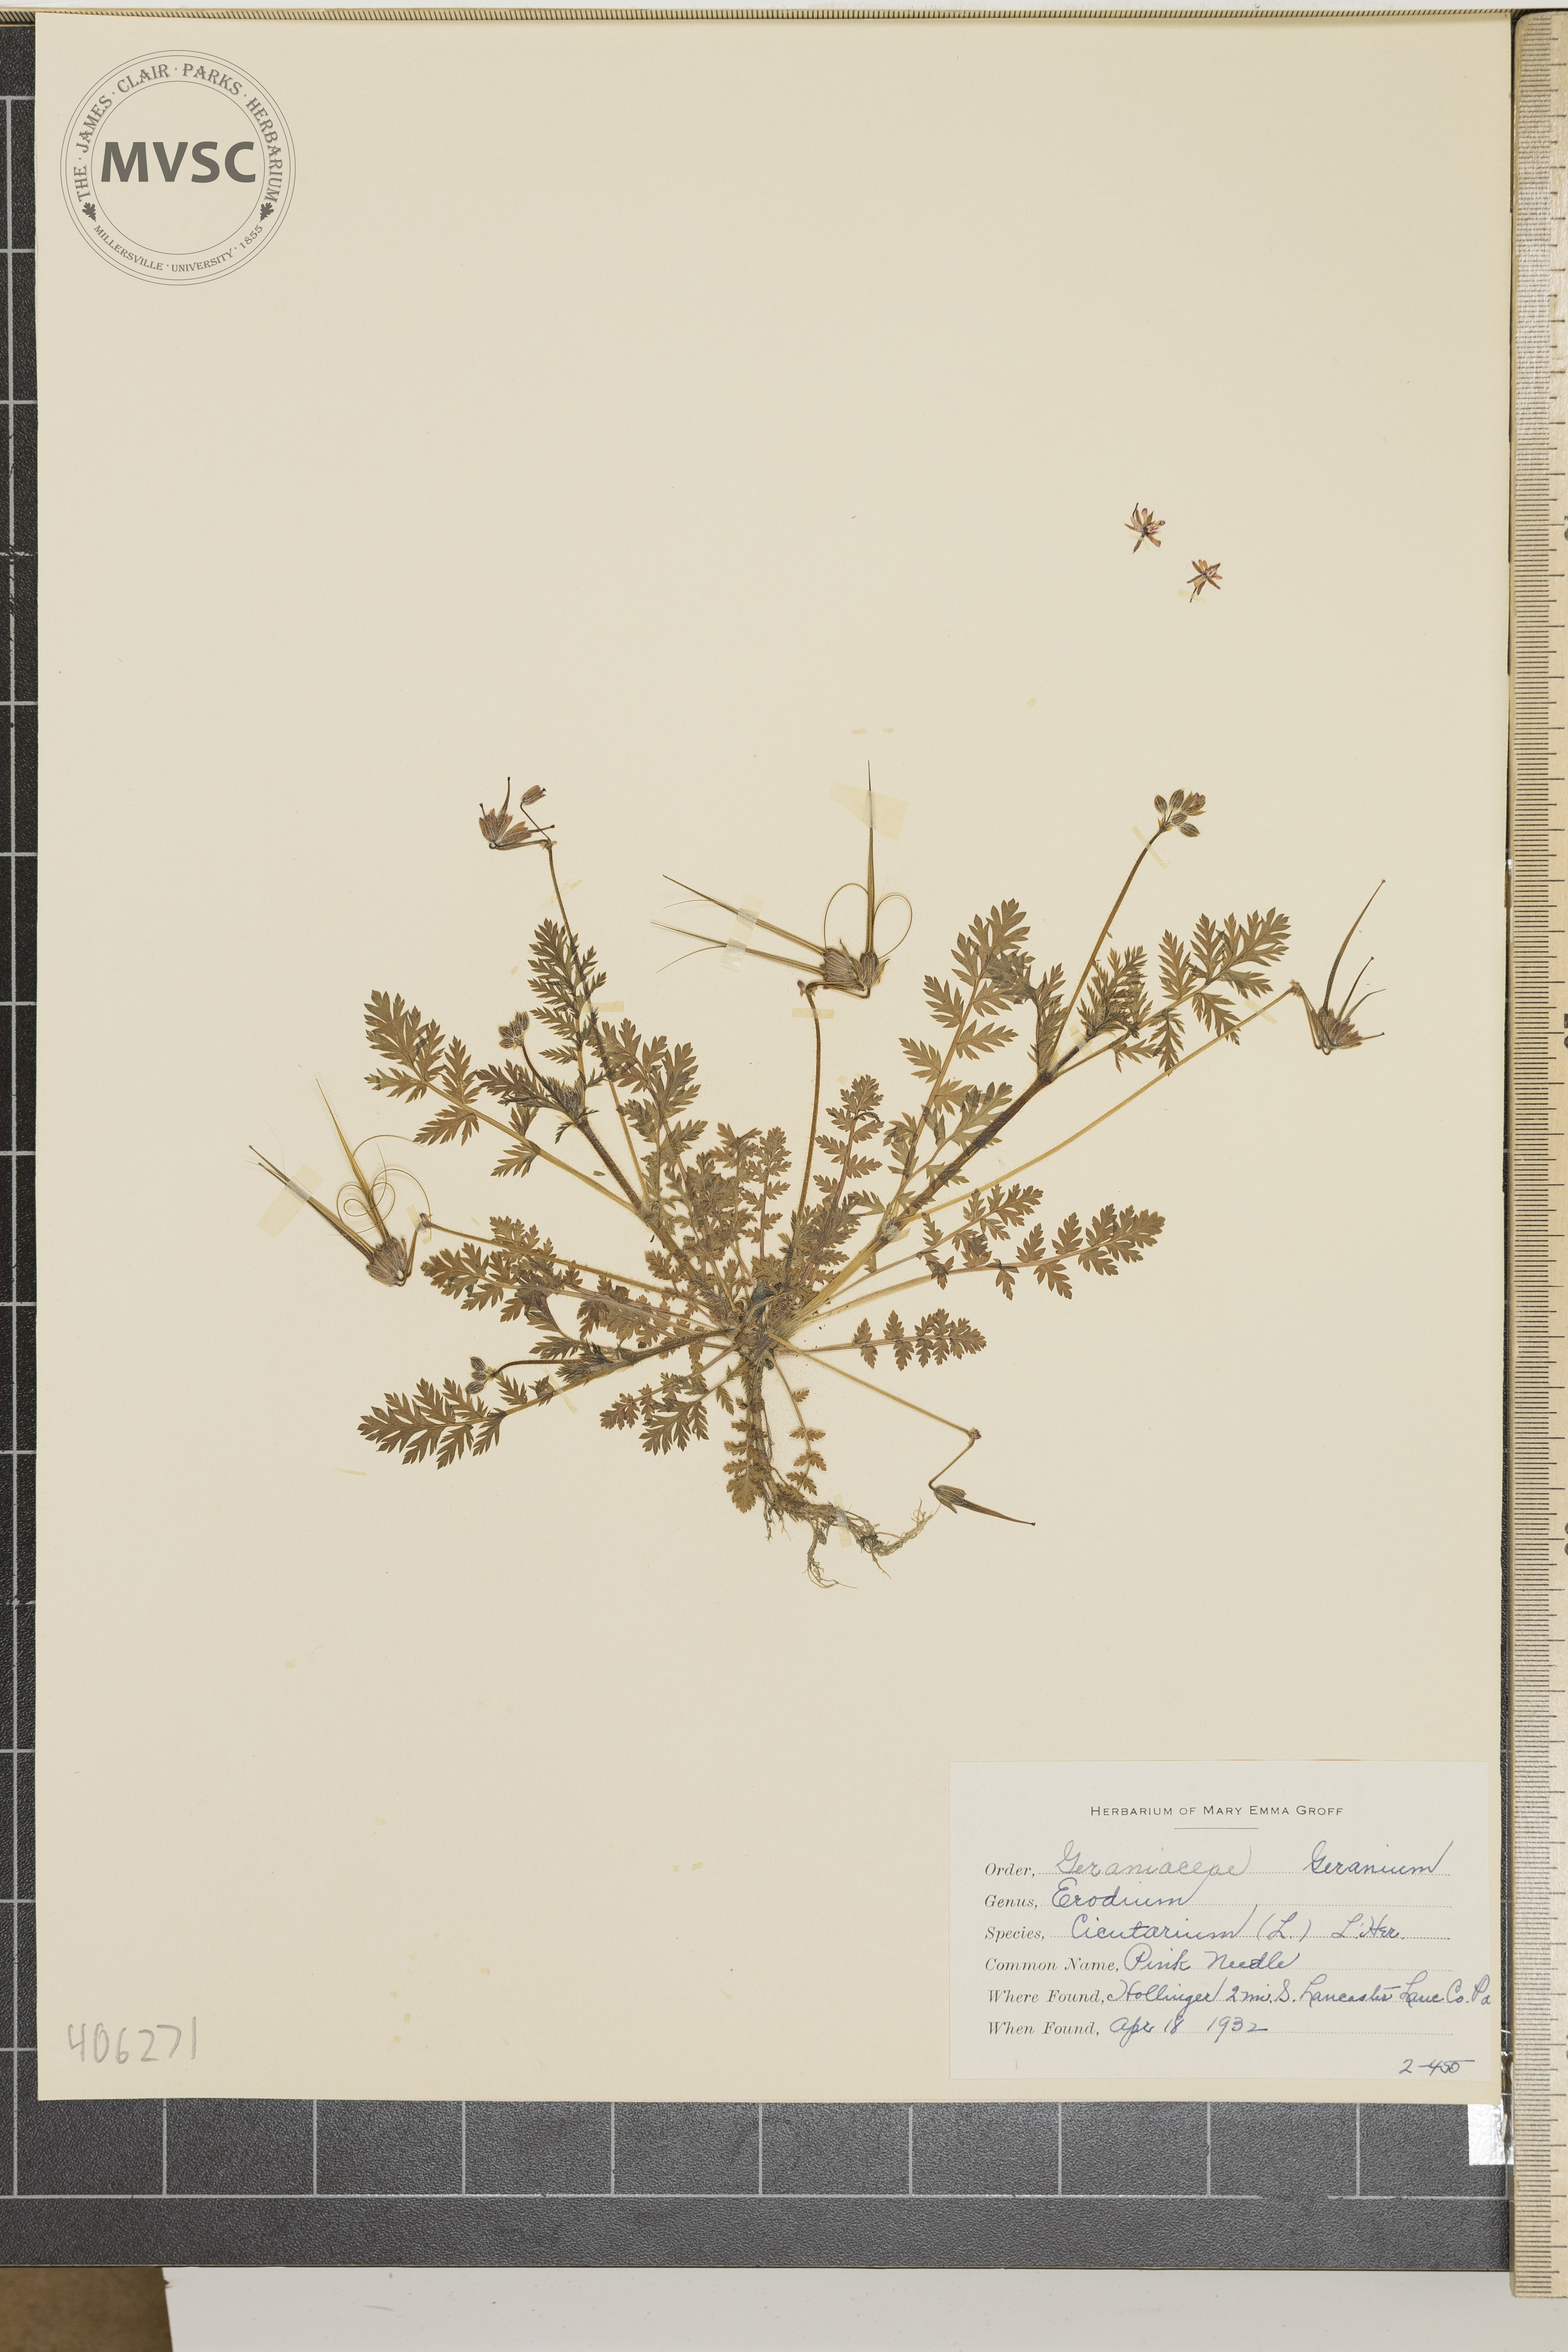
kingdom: Plantae
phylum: Tracheophyta
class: Magnoliopsida
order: Geraniales
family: Geraniaceae
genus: Erodium
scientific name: Erodium cicutarium
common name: Common stork's-bill
